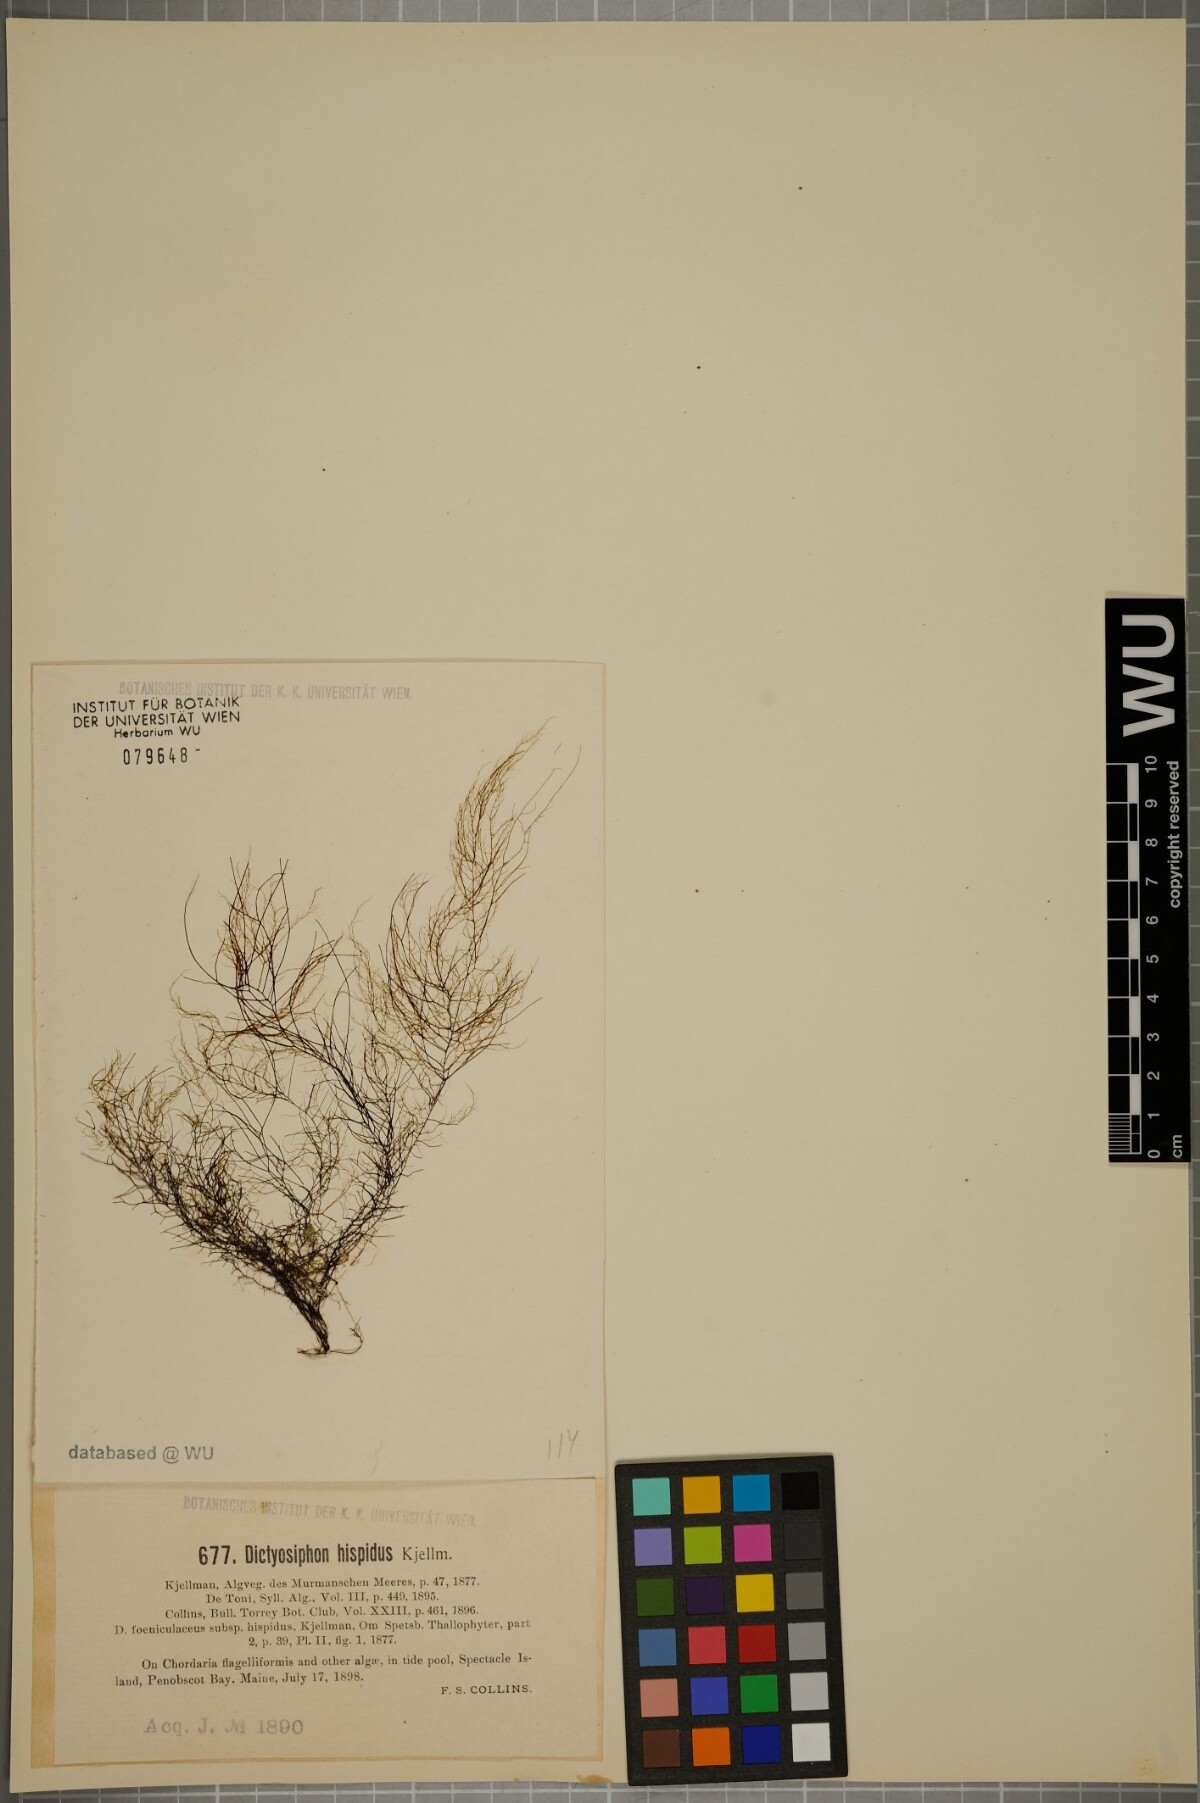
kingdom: Chromista
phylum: Ochrophyta
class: Phaeophyceae
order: Ectocarpales
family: Chordariaceae
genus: Dictyosiphon
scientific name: Dictyosiphon foeniculaceus
